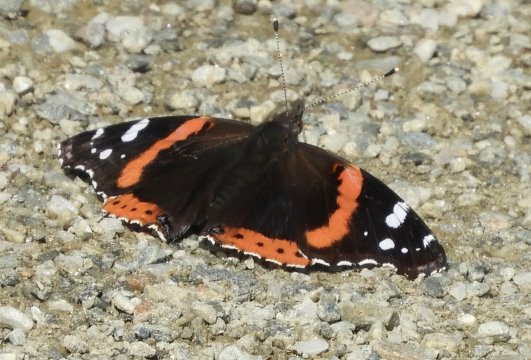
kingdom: Animalia
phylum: Arthropoda
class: Insecta
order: Lepidoptera
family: Nymphalidae
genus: Vanessa
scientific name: Vanessa atalanta
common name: Red Admiral
